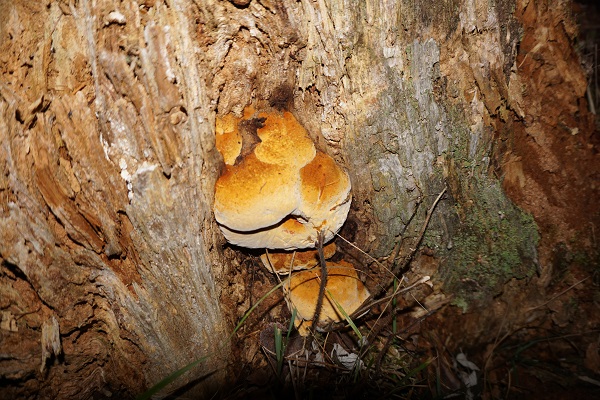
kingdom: Fungi
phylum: Basidiomycota
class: Agaricomycetes
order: Gloeophyllales
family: Gloeophyllaceae
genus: Gloeophyllum
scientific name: Gloeophyllum odoratum
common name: duftende korkhat
